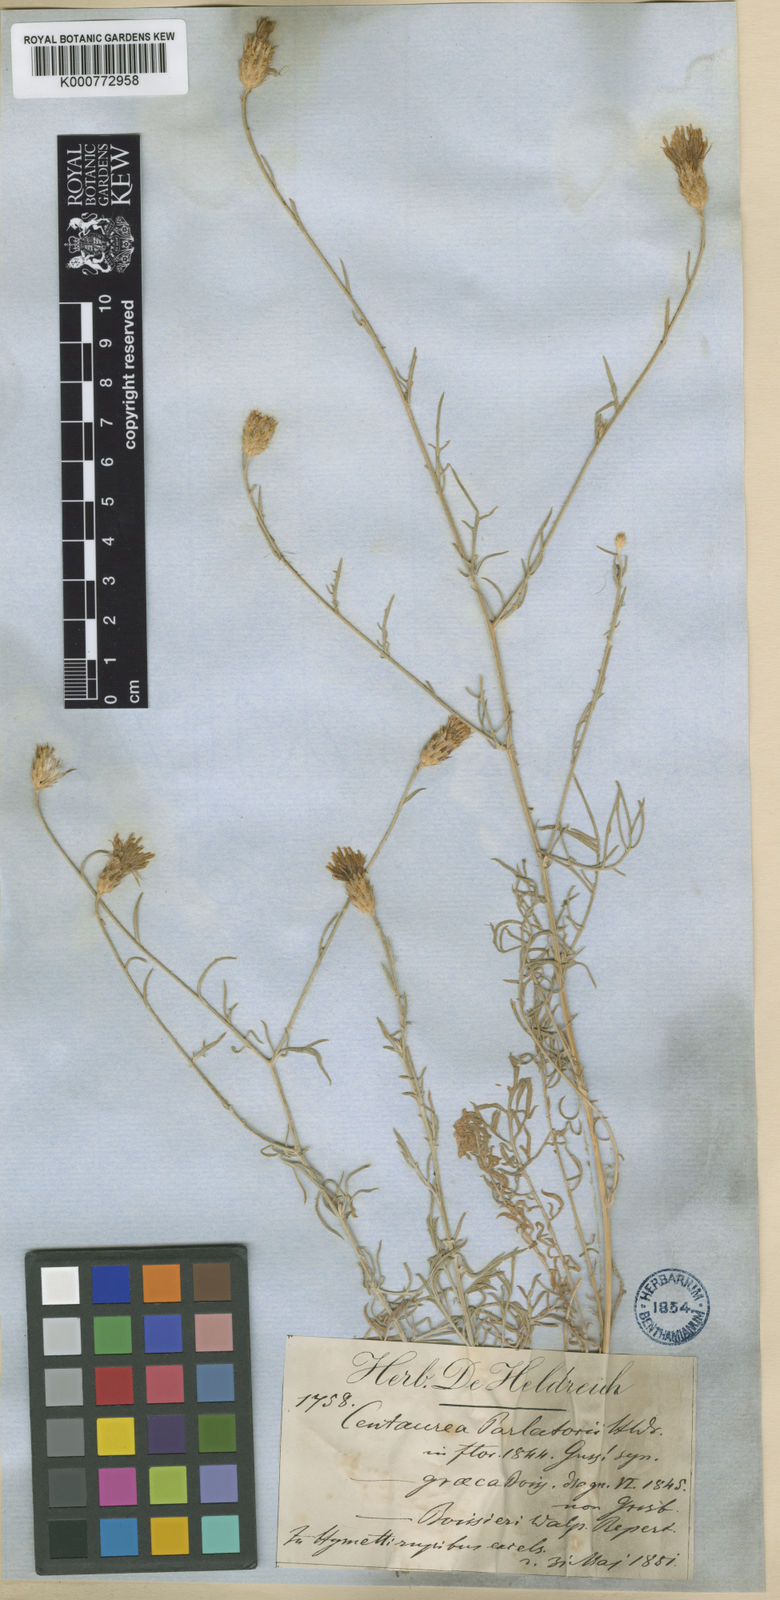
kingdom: Plantae
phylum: Tracheophyta
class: Magnoliopsida
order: Asterales
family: Asteraceae
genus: Centaurea
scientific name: Centaurea attica
